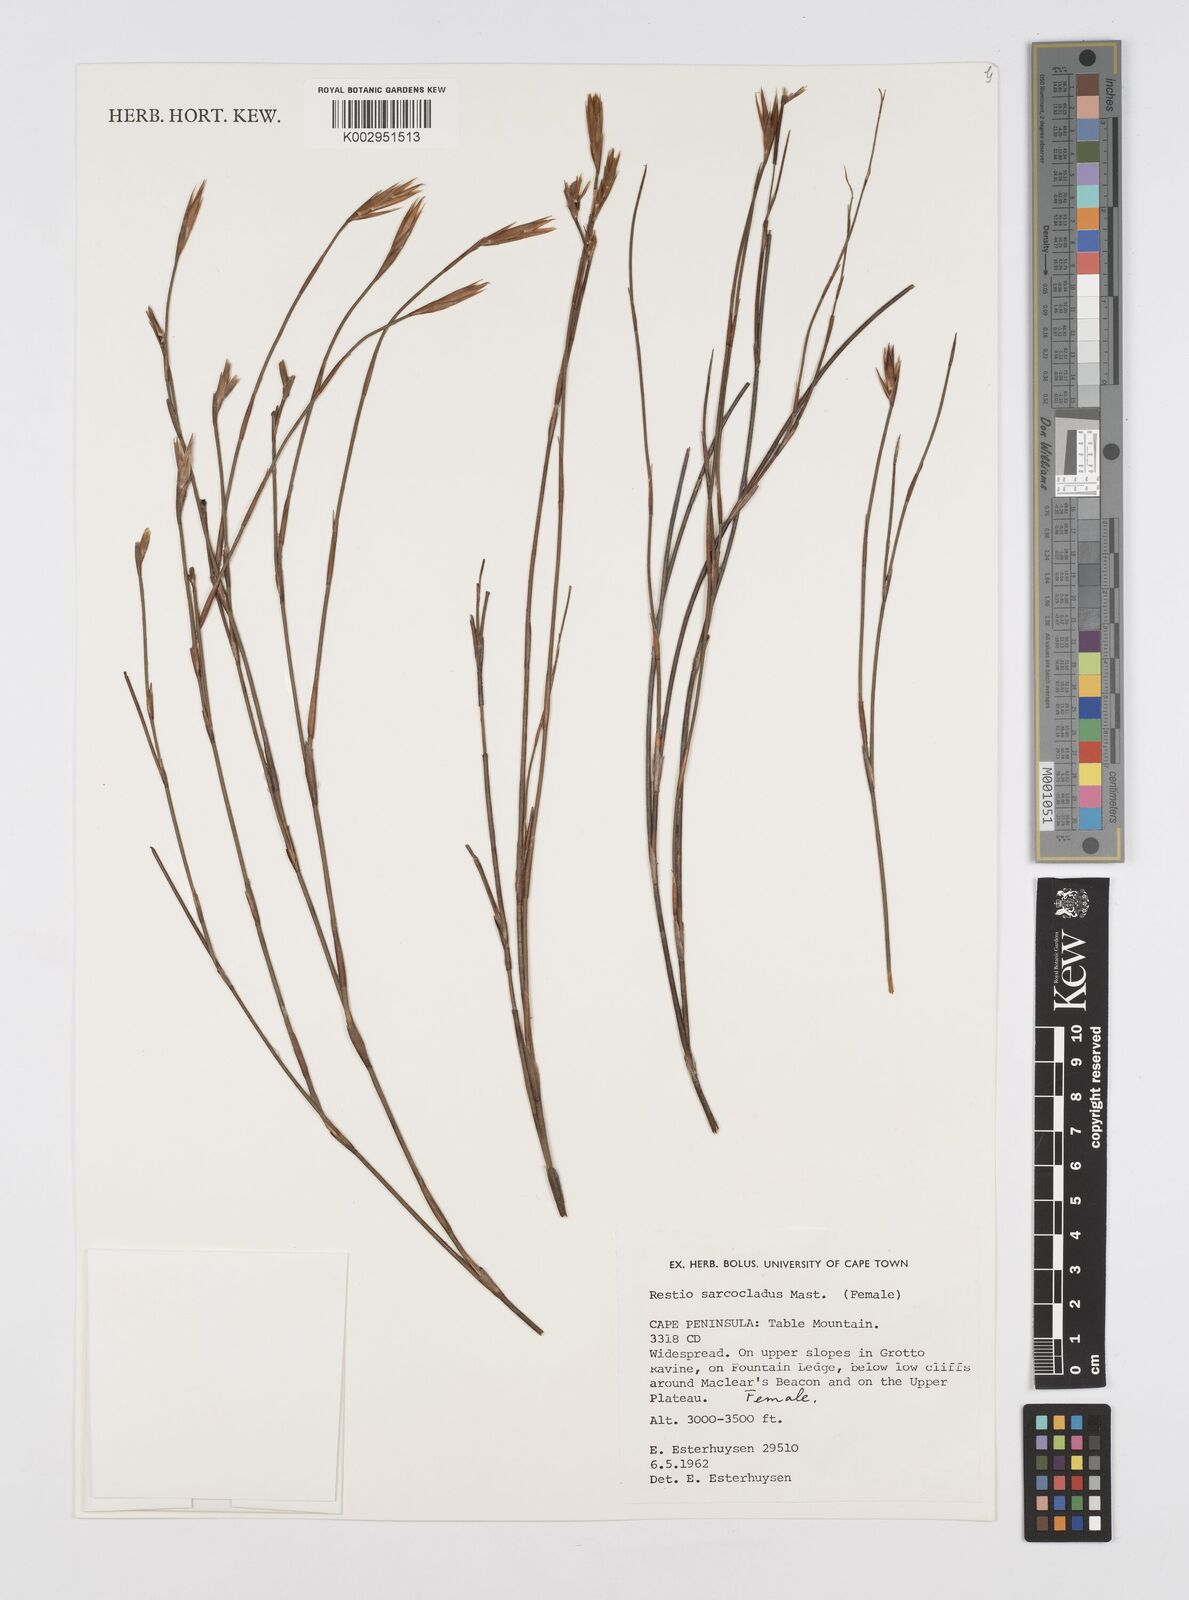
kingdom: Plantae
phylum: Tracheophyta
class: Liliopsida
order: Poales
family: Restionaceae
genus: Restio
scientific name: Restio saroclados
